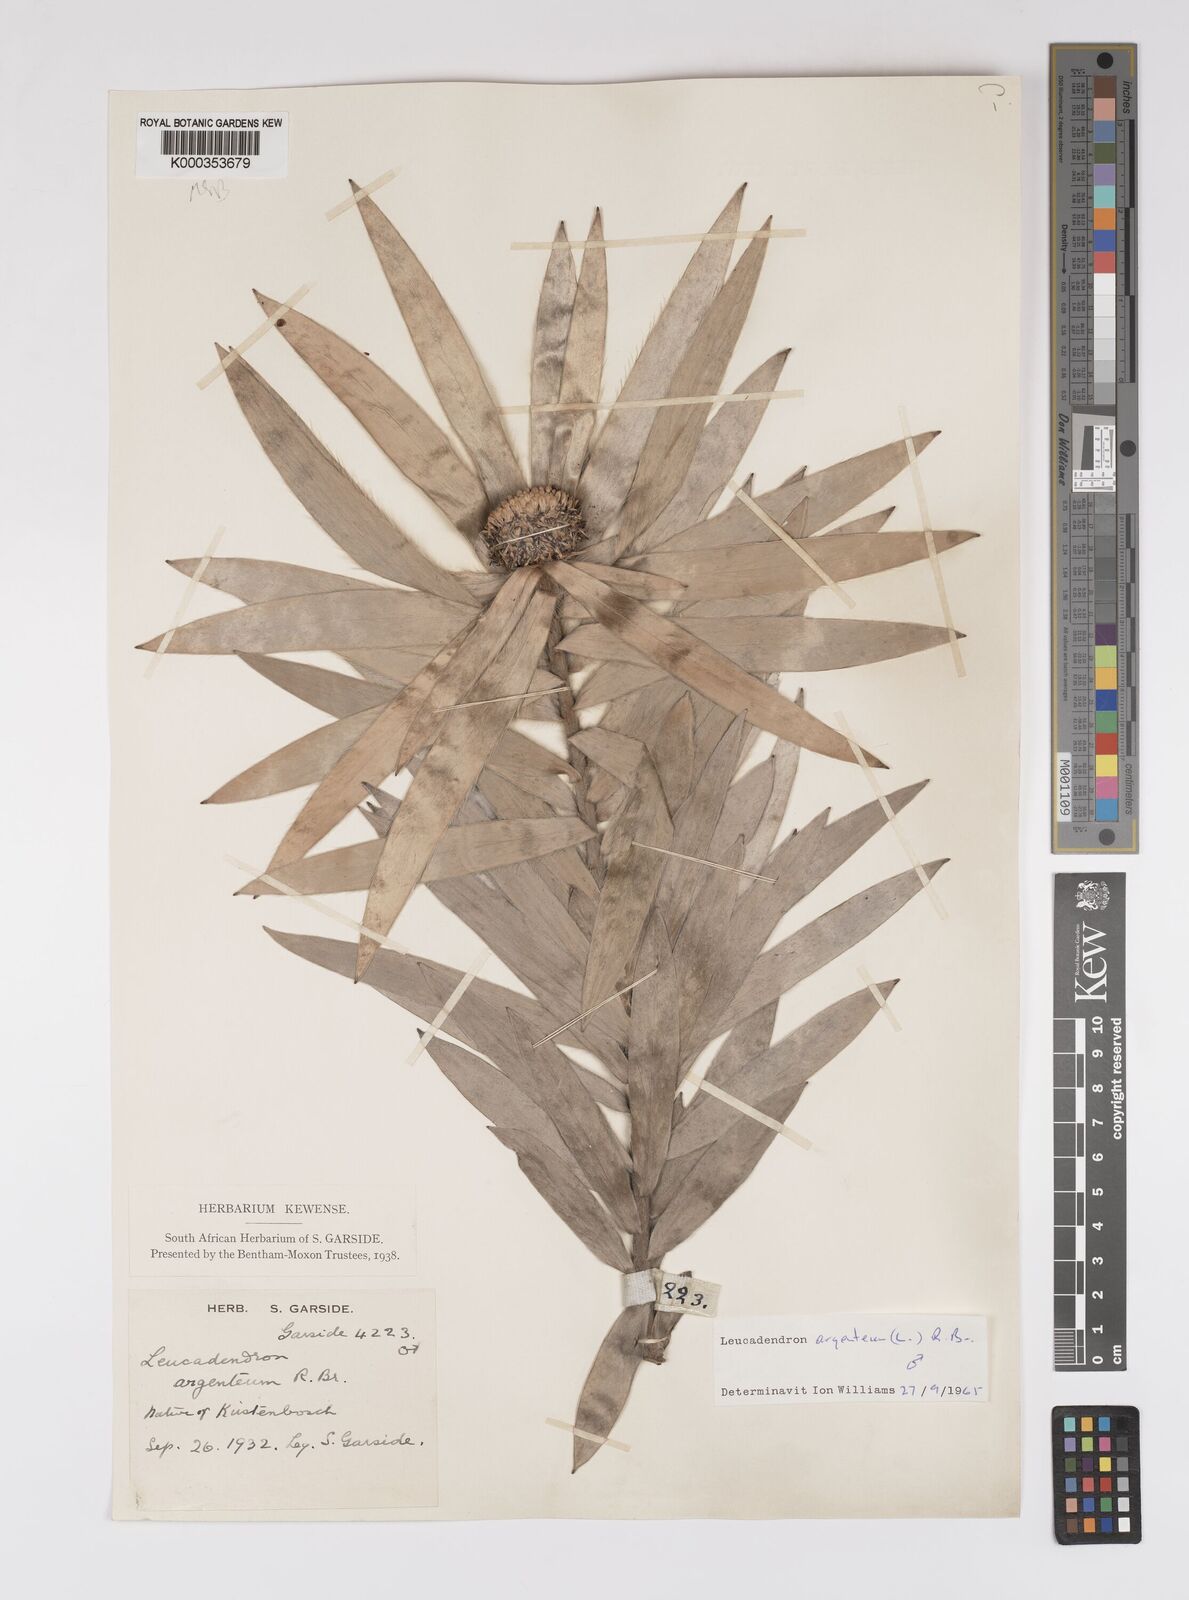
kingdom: Plantae
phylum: Tracheophyta
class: Magnoliopsida
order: Proteales
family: Proteaceae
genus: Leucadendron
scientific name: Leucadendron argenteum
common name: Cape silver tree
